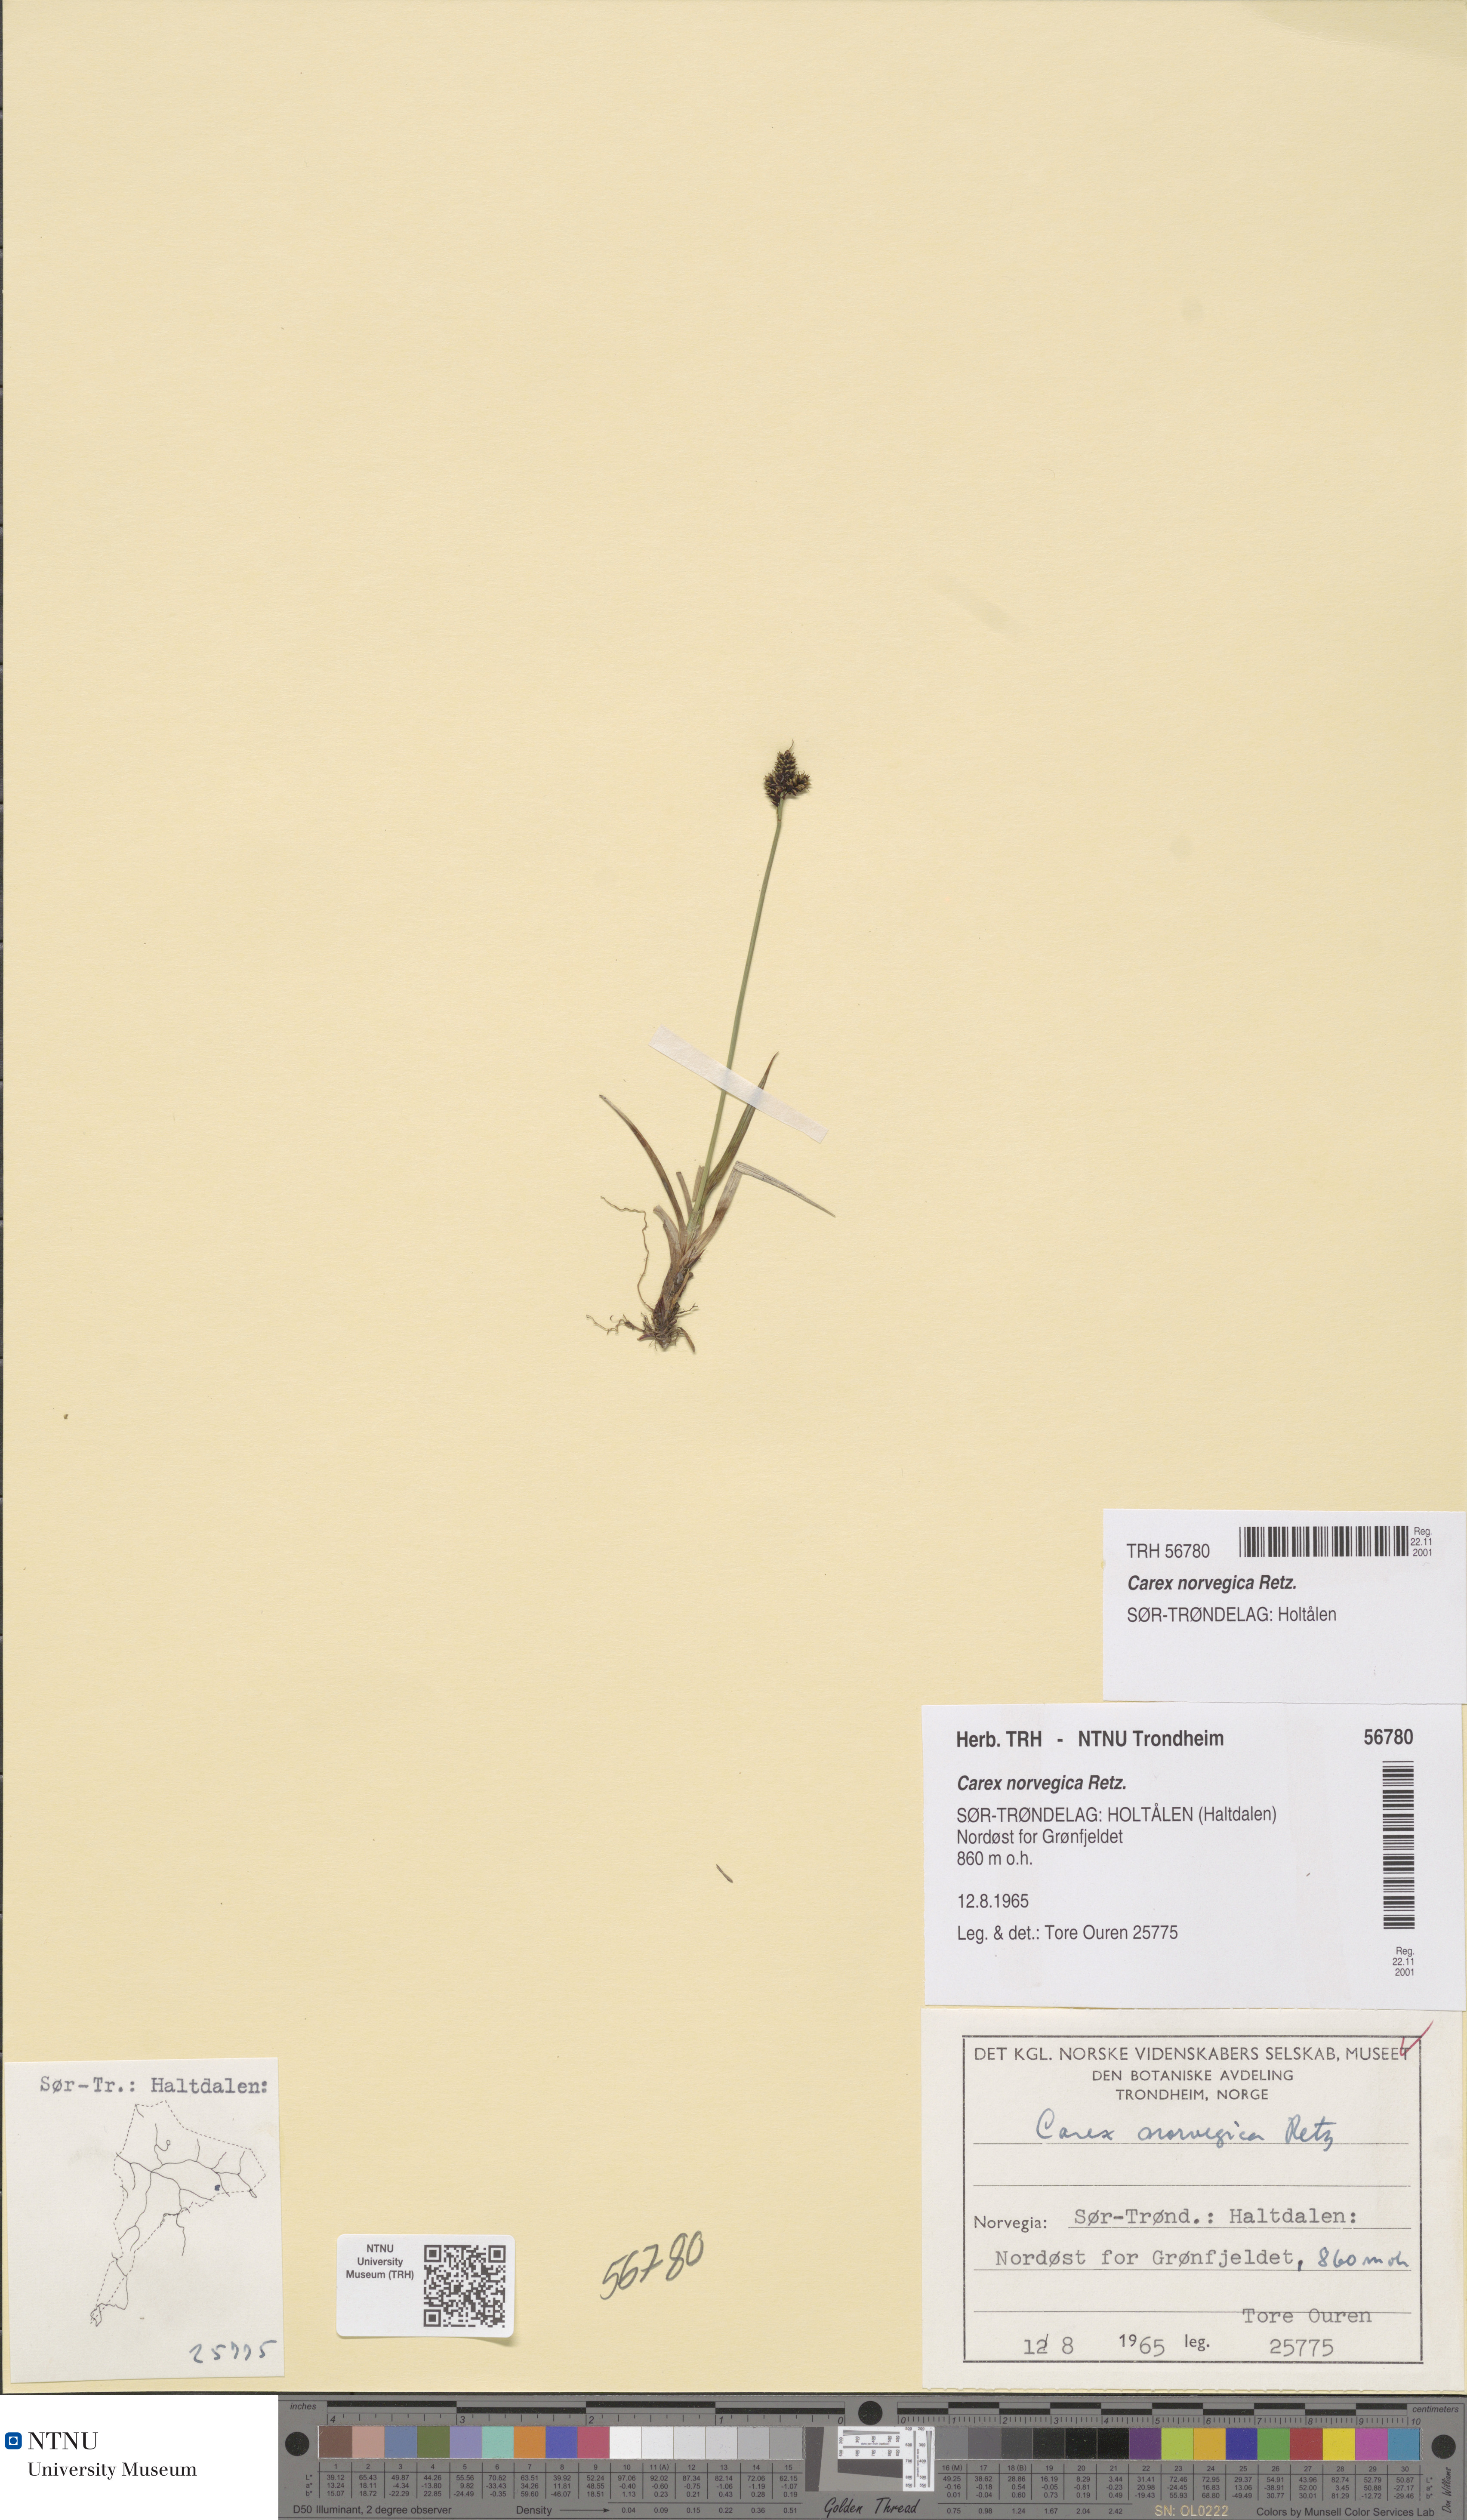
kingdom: Plantae
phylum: Tracheophyta
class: Liliopsida
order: Poales
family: Cyperaceae
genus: Carex
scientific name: Carex norvegica
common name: Close-headed alpine-sedge
